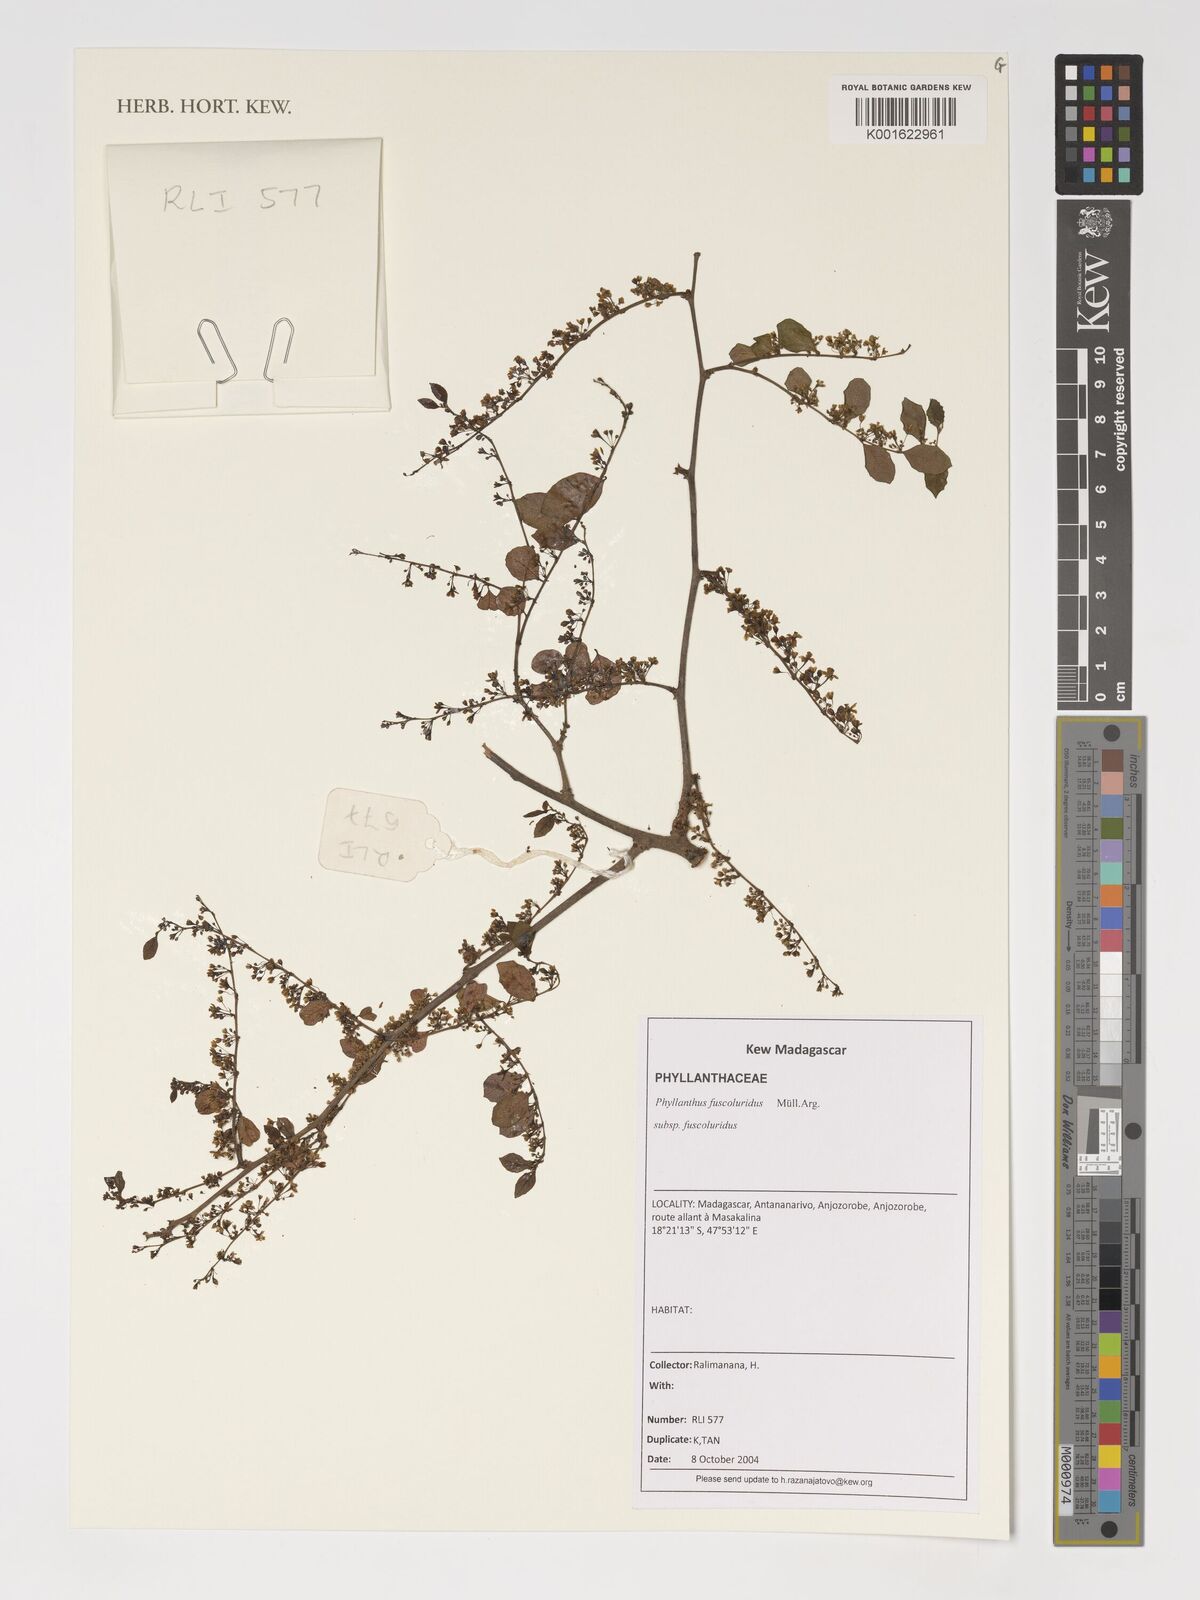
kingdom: Plantae
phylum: Tracheophyta
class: Magnoliopsida
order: Malpighiales
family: Phyllanthaceae
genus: Phyllanthus
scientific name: Phyllanthus fuscoluridus
